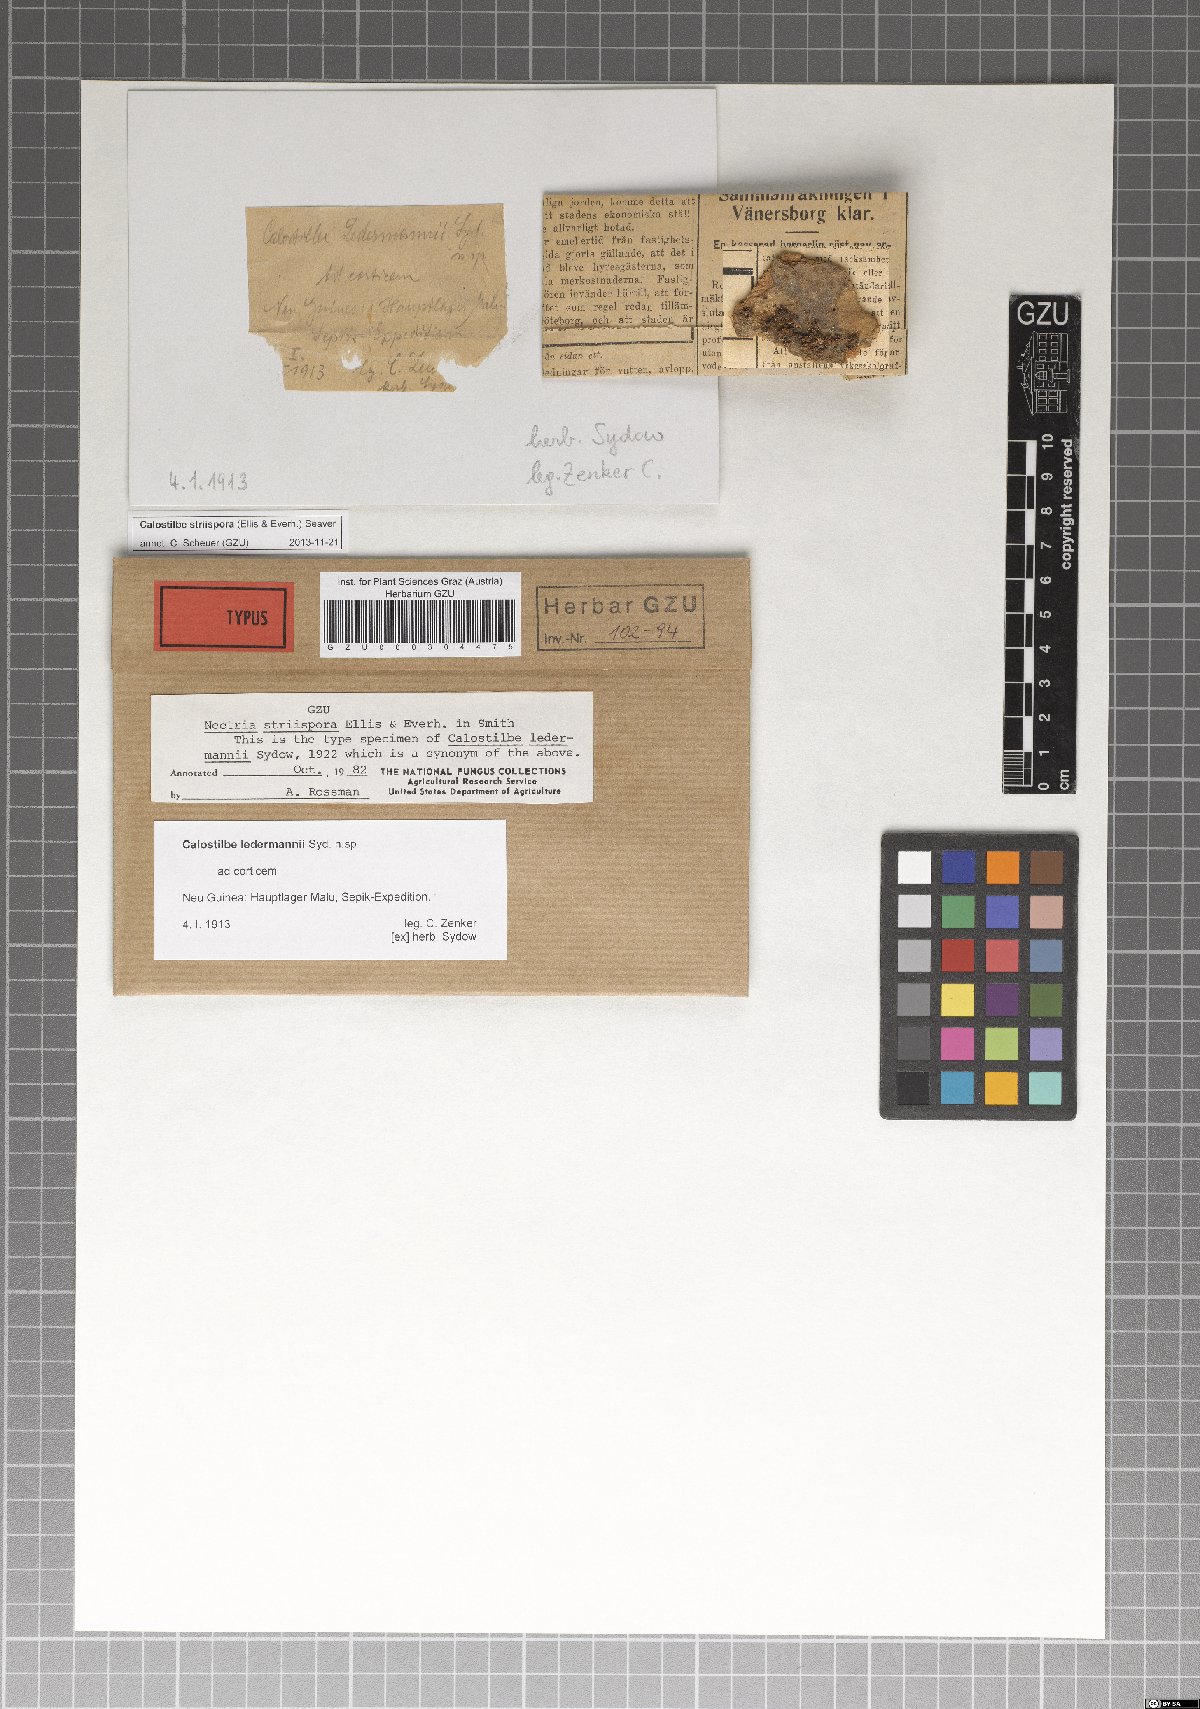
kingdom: Fungi
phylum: Ascomycota
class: Sordariomycetes
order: Hypocreales
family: Nectriaceae
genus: Calostilbe
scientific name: Calostilbe
